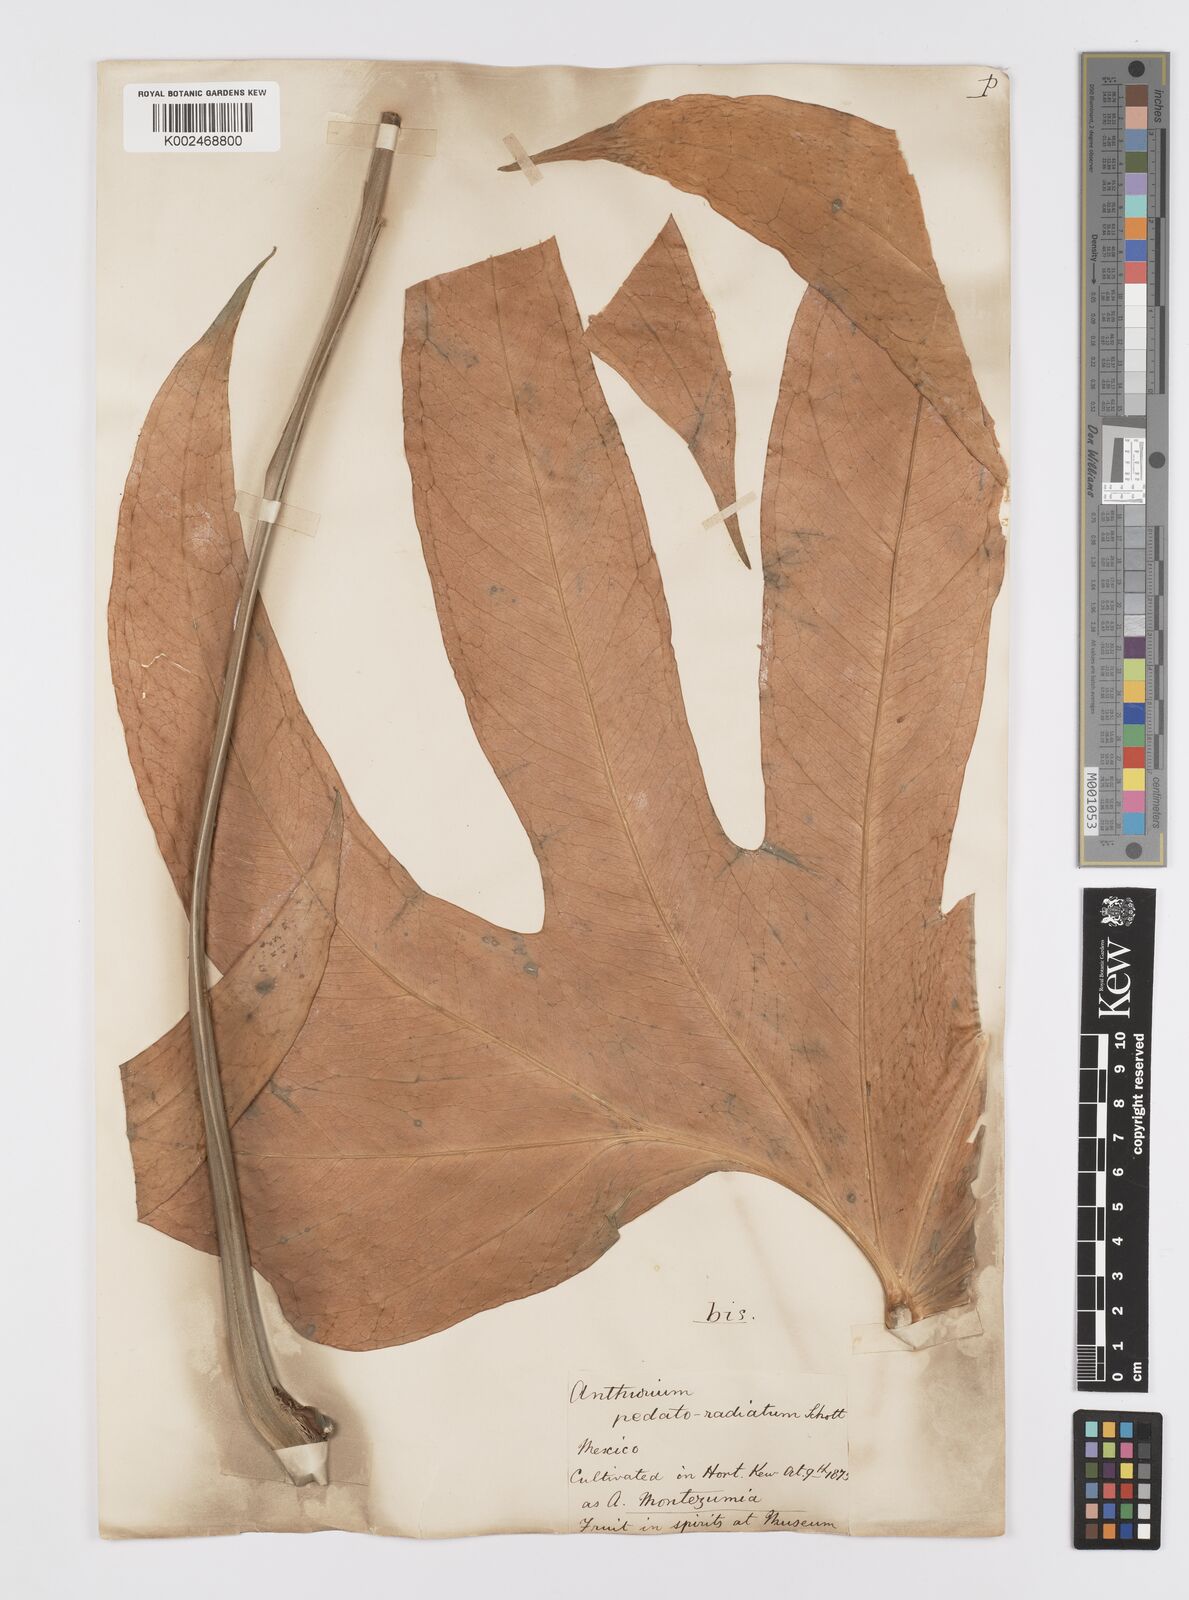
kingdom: Plantae
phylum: Tracheophyta
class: Liliopsida
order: Alismatales
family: Araceae
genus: Anthurium
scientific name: Anthurium pedatoradiatum
